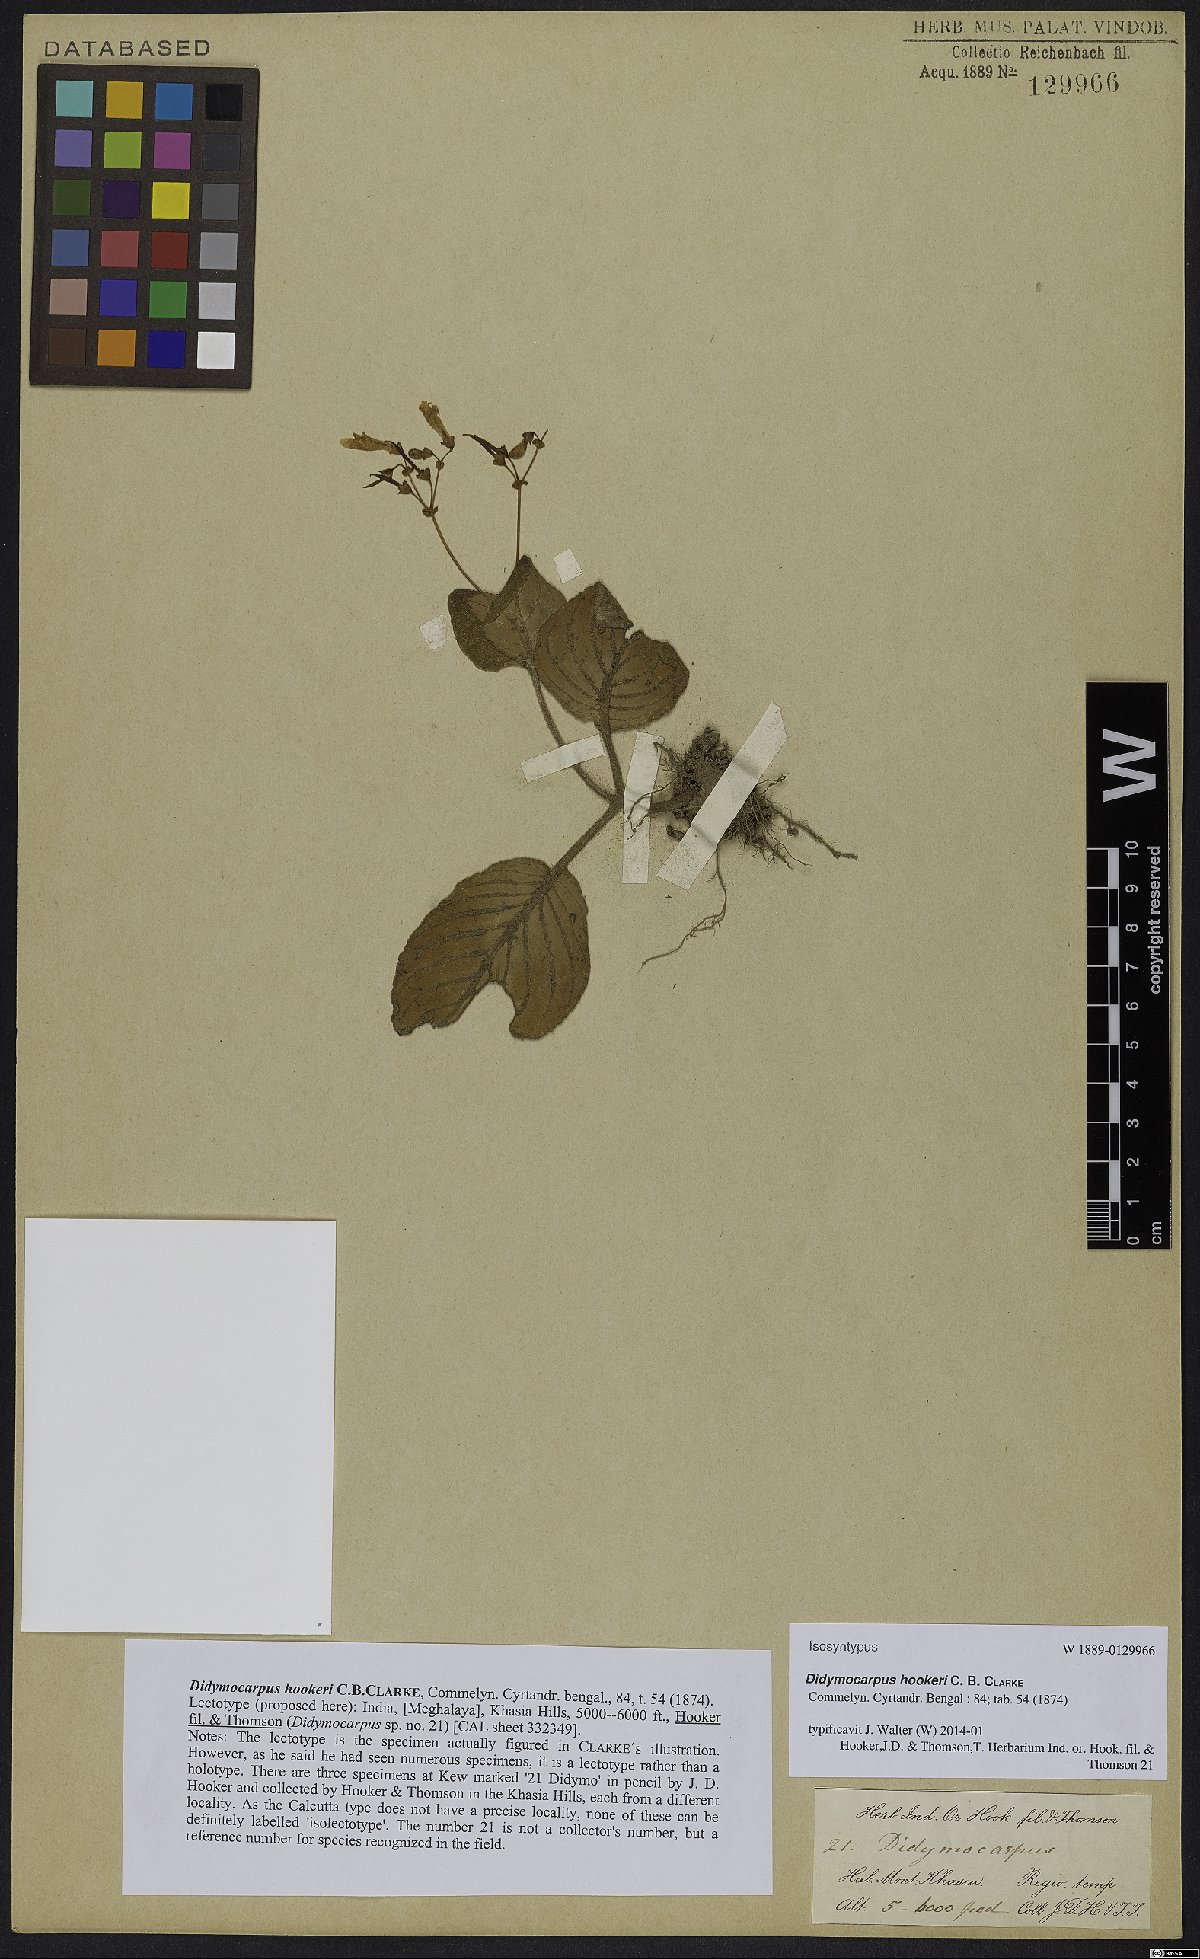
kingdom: Plantae
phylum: Tracheophyta
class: Magnoliopsida
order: Lamiales
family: Gesneriaceae
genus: Didymocarpus
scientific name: Didymocarpus hookeri
